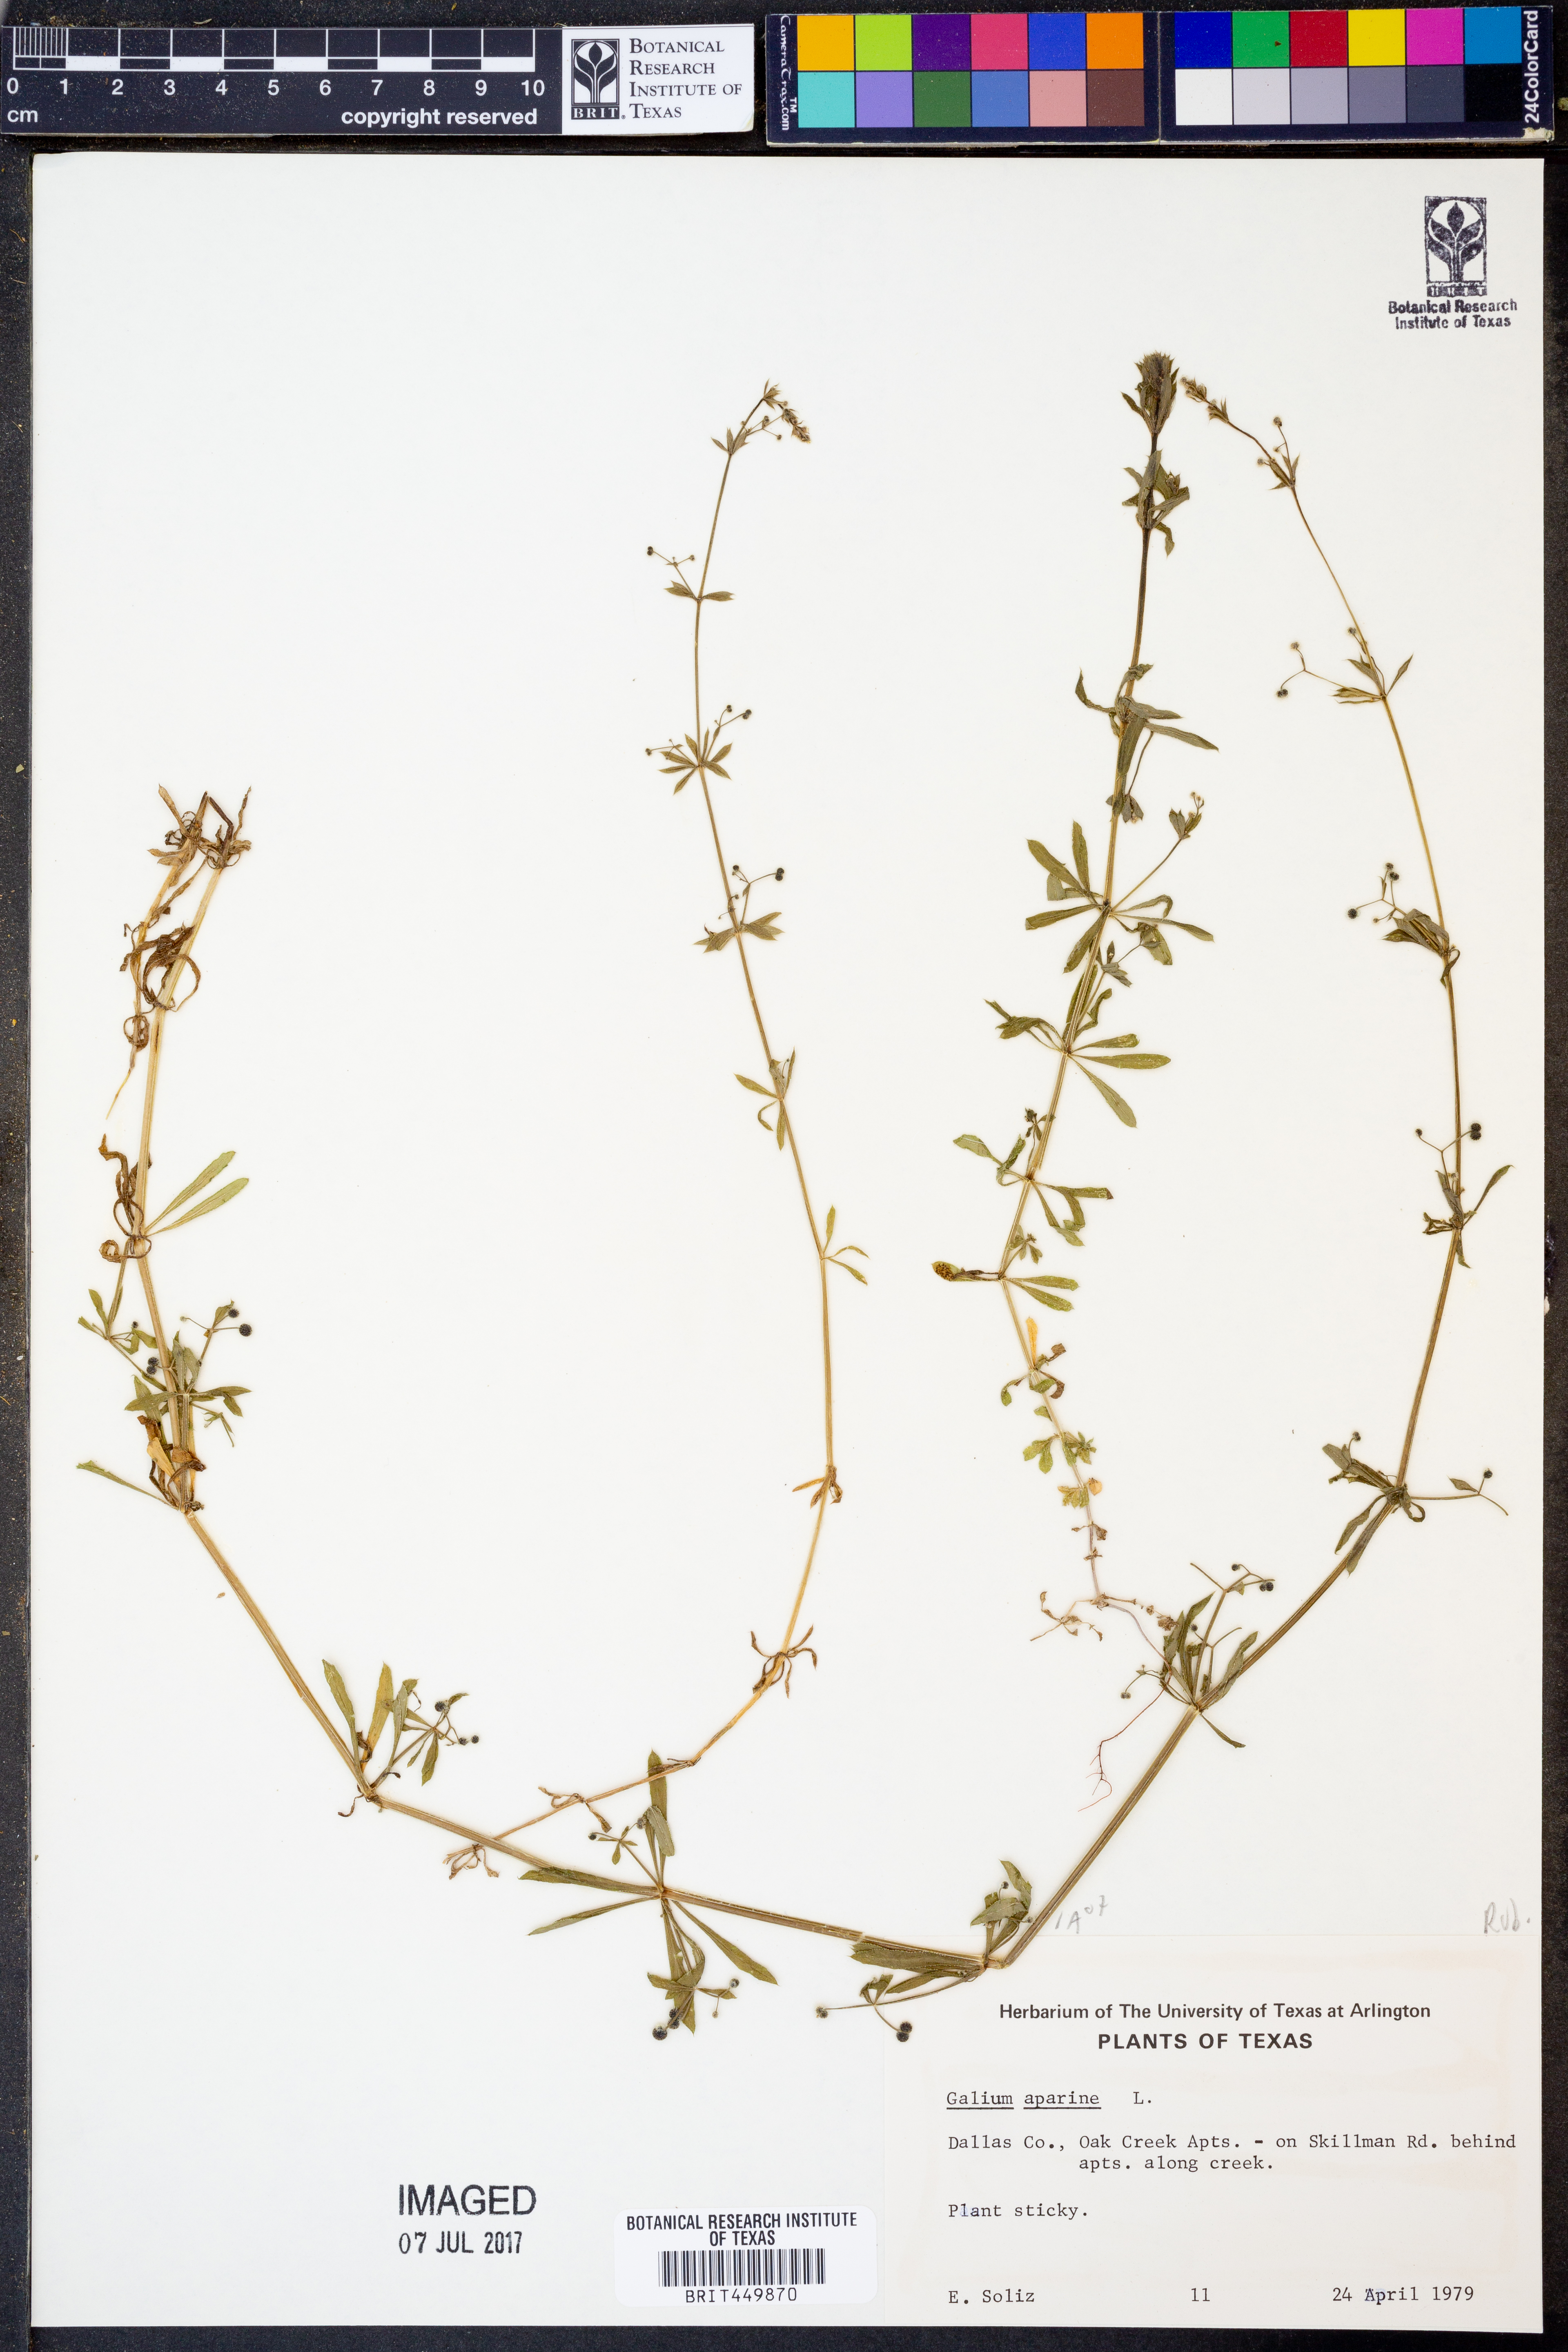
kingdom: Plantae
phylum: Tracheophyta
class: Magnoliopsida
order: Gentianales
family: Rubiaceae
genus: Galium
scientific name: Galium aparine
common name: Cleavers
